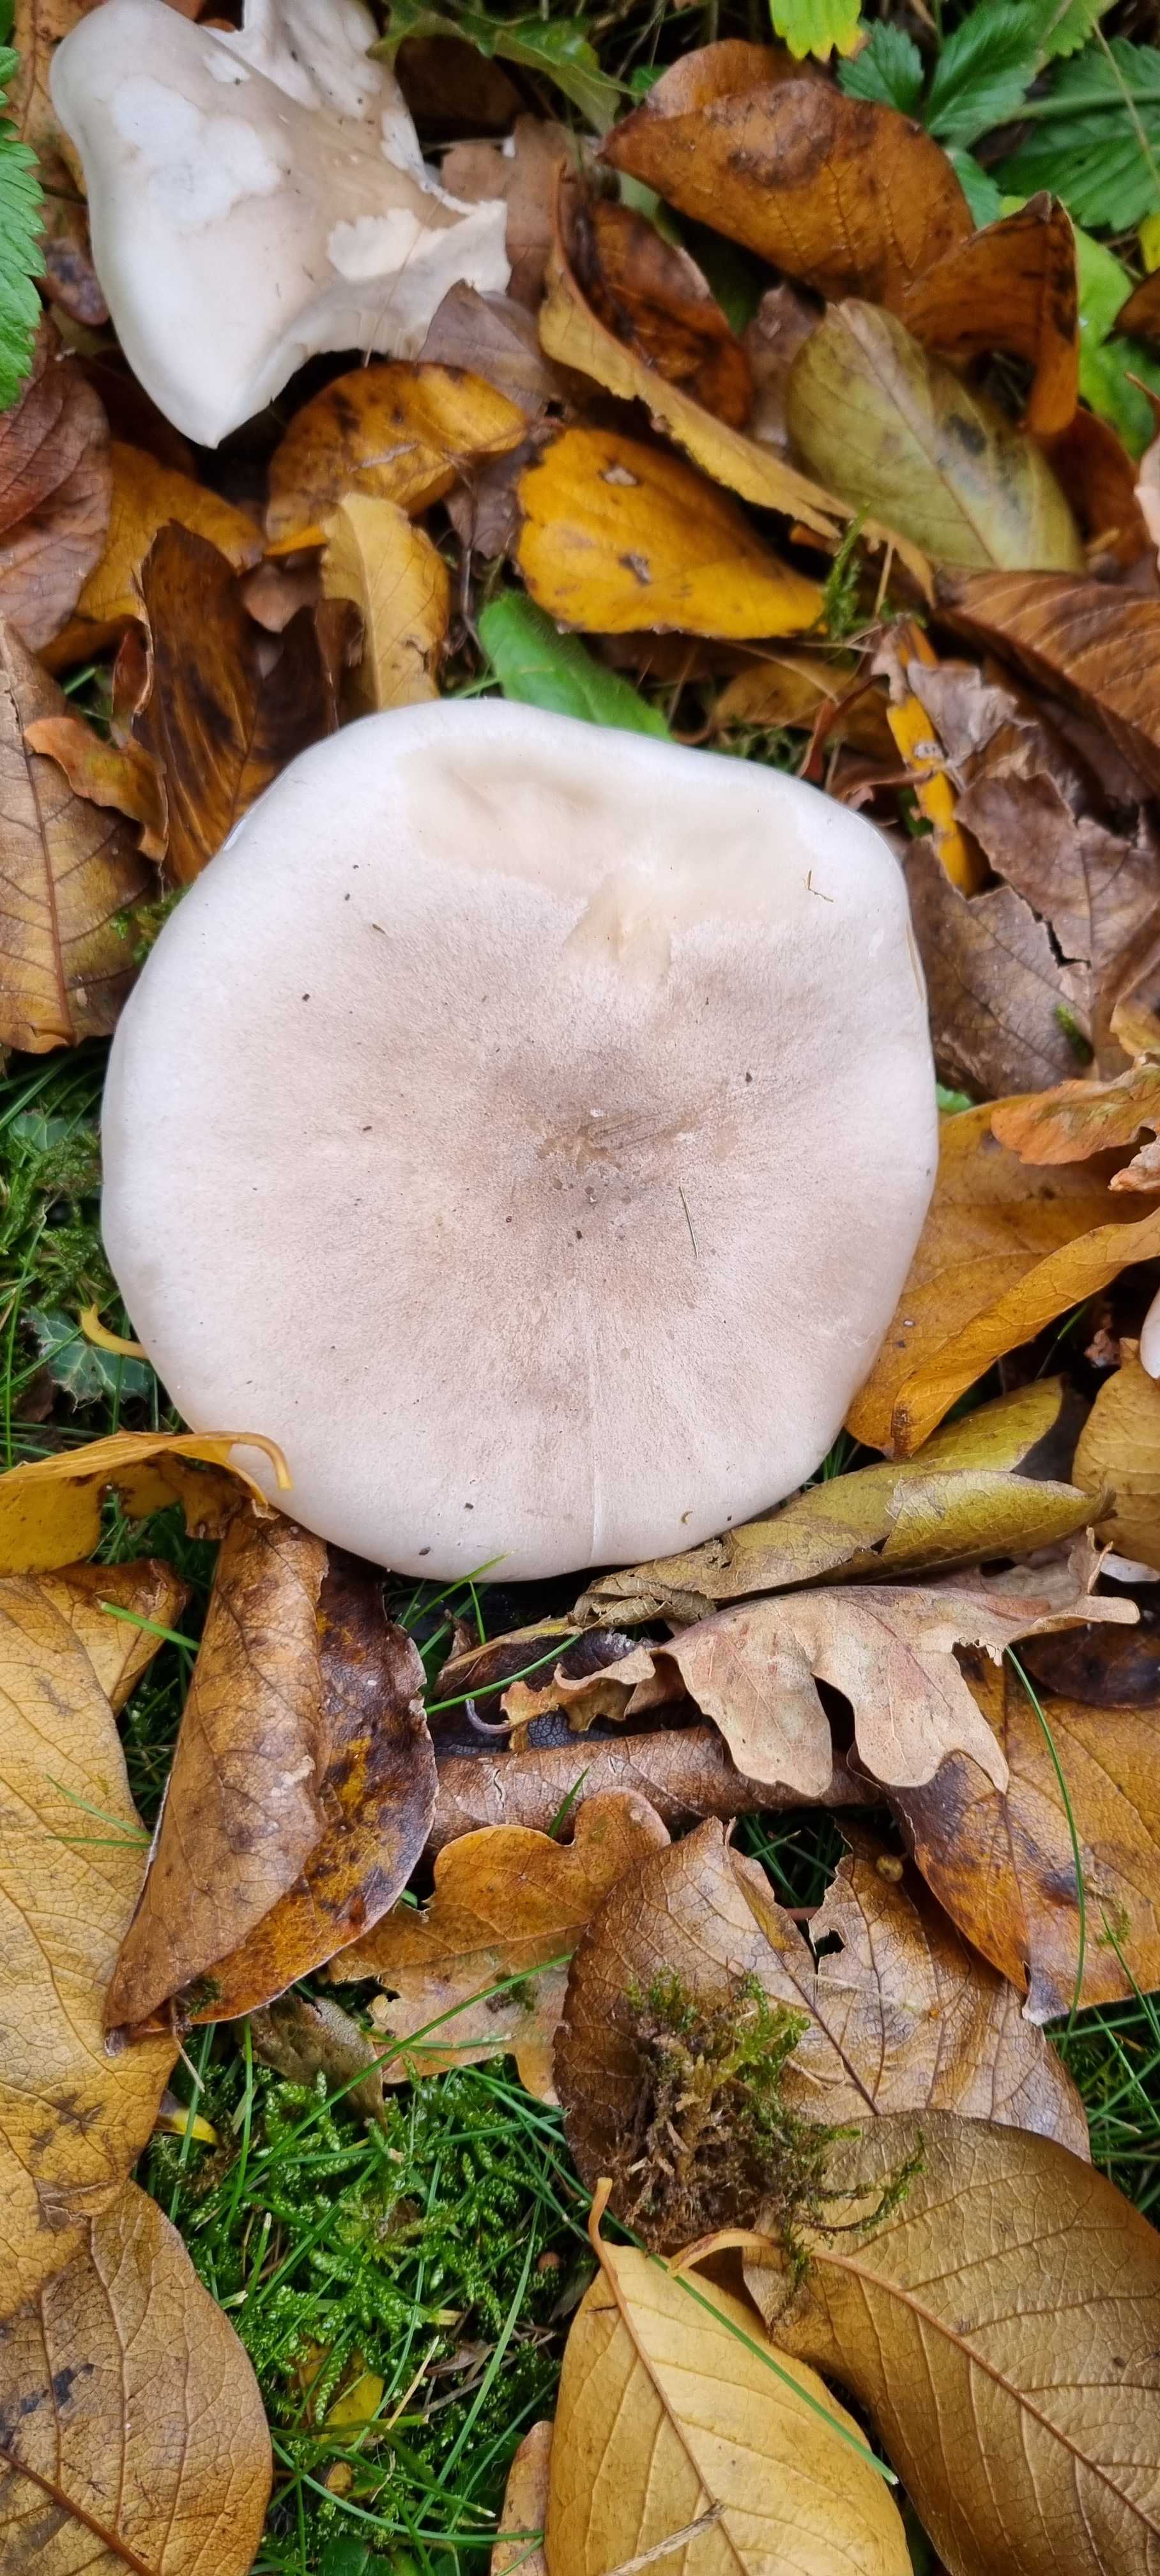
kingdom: Fungi
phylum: Basidiomycota
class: Agaricomycetes
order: Agaricales
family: Tricholomataceae
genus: Clitocybe
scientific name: Clitocybe nebularis
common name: tåge-tragthat
